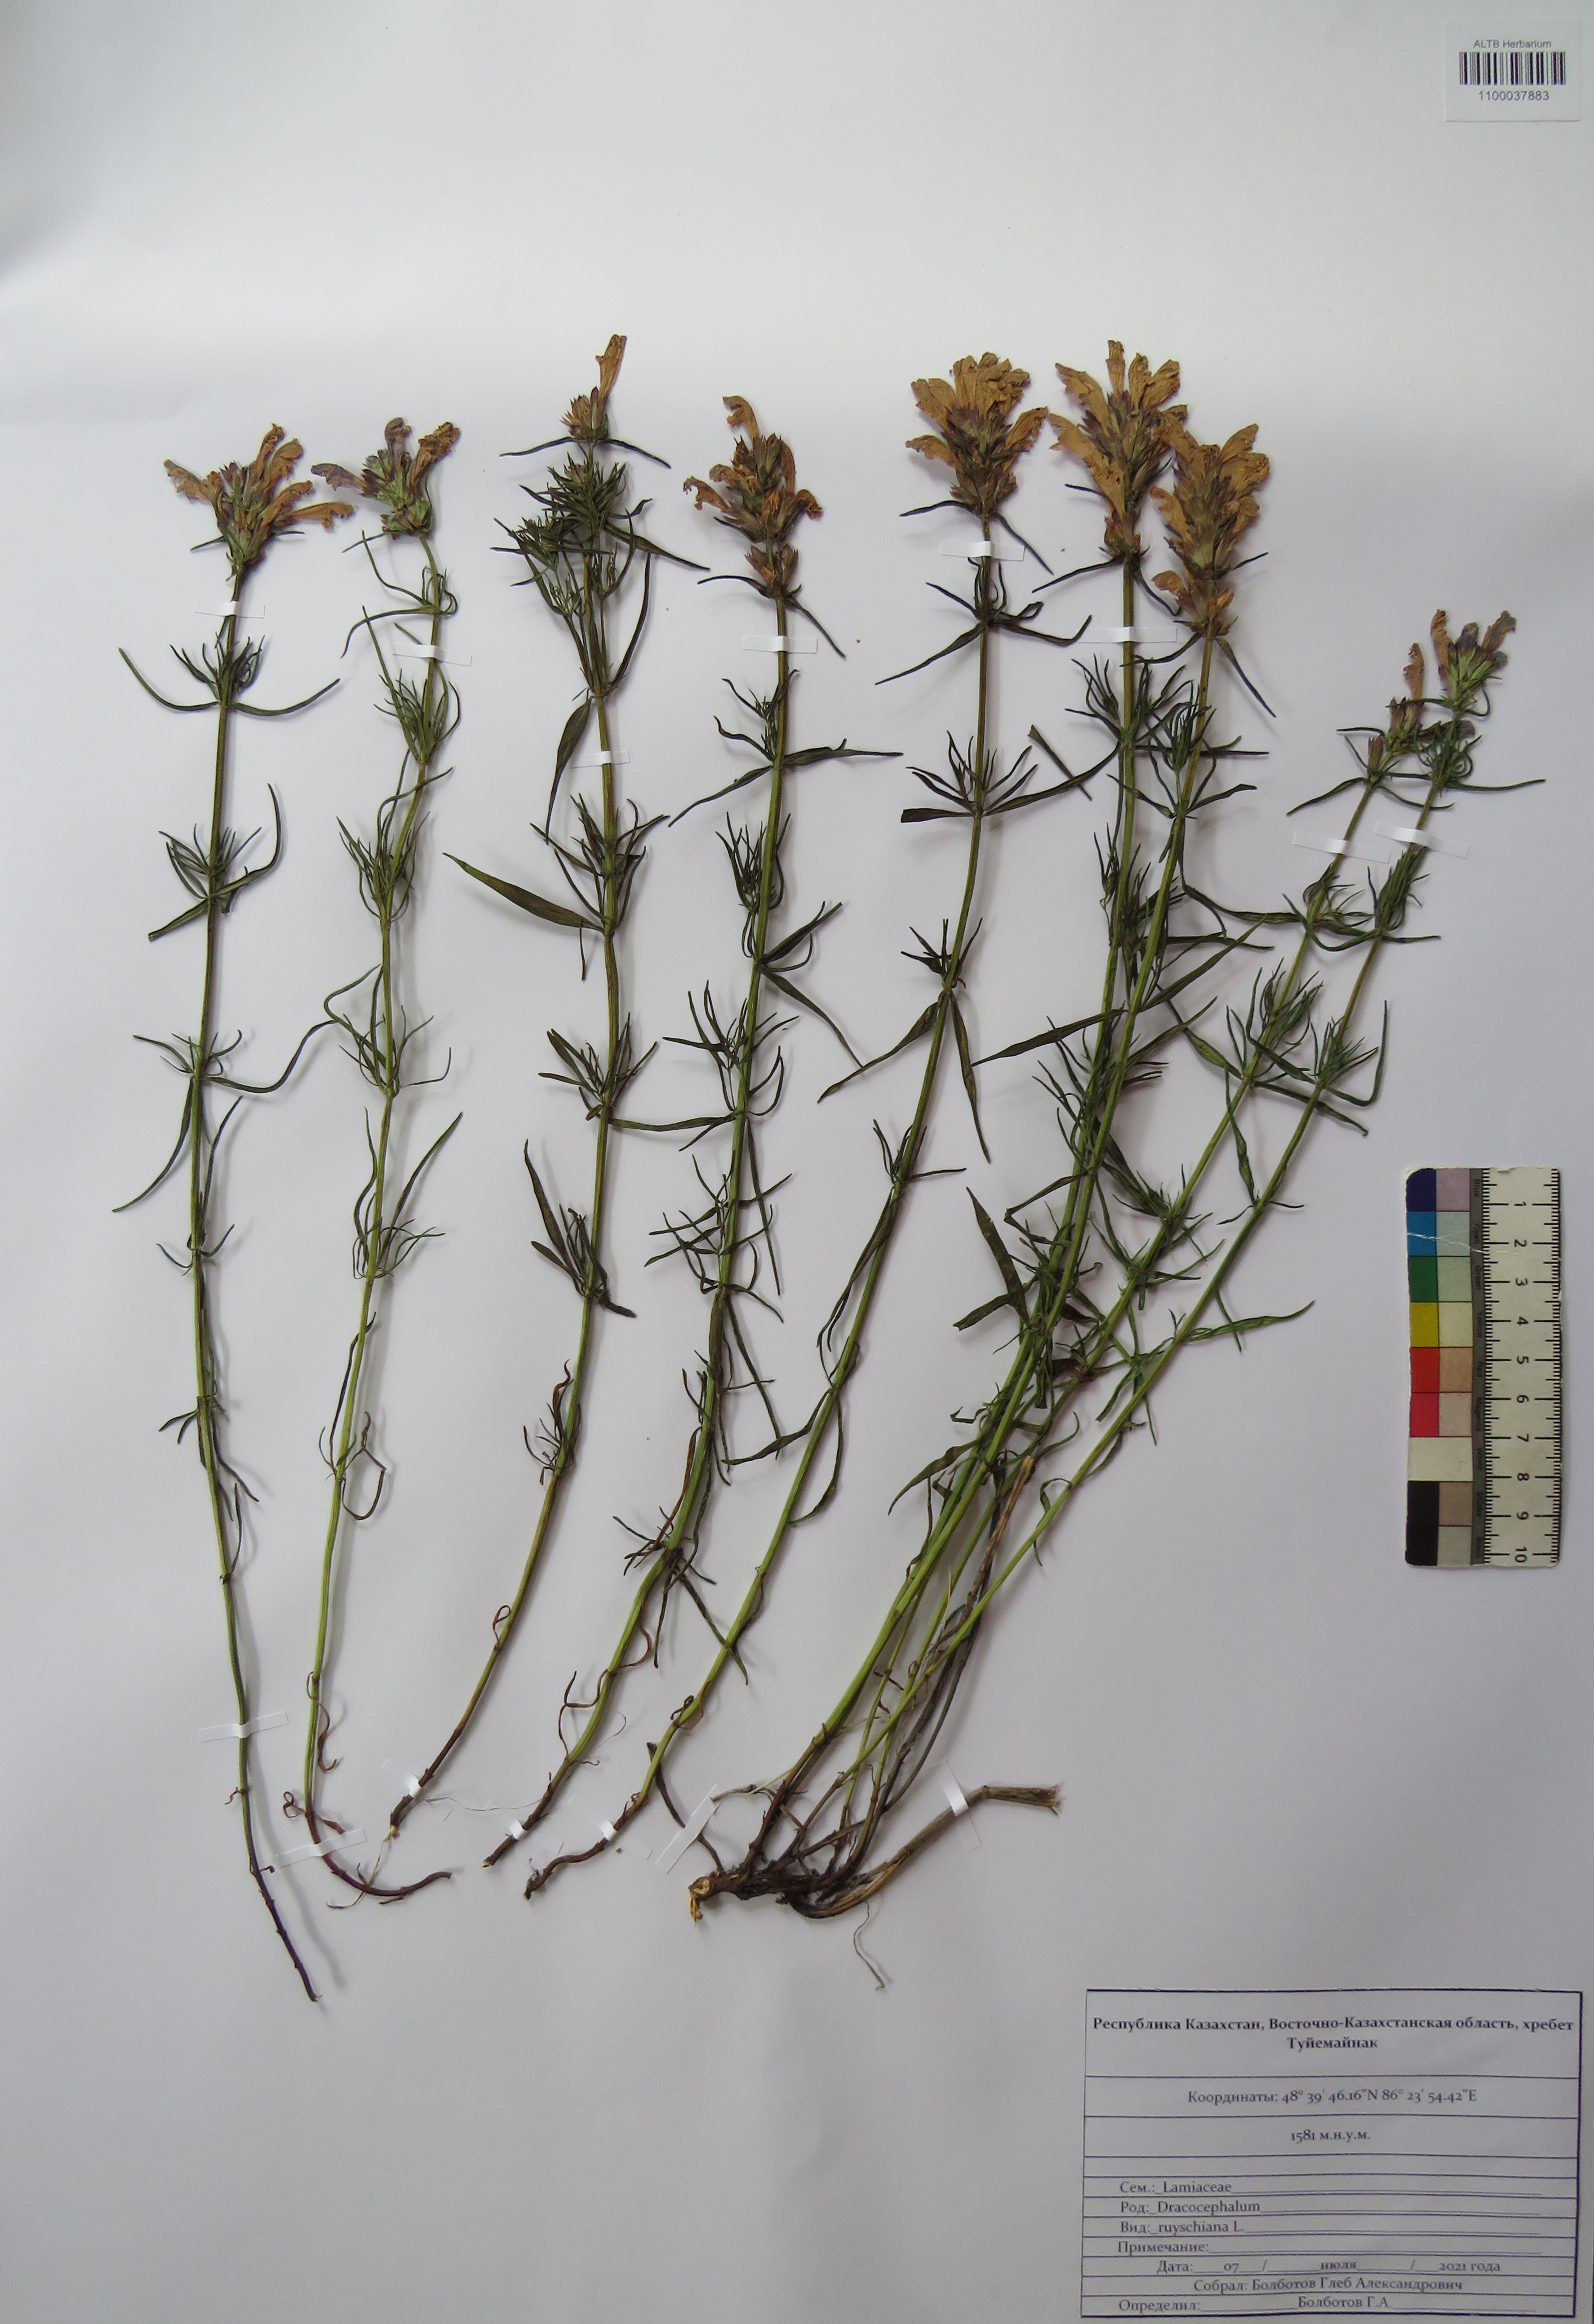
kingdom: Plantae
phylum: Tracheophyta
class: Magnoliopsida
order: Lamiales
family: Lamiaceae
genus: Dracocephalum
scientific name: Dracocephalum ruyschiana
